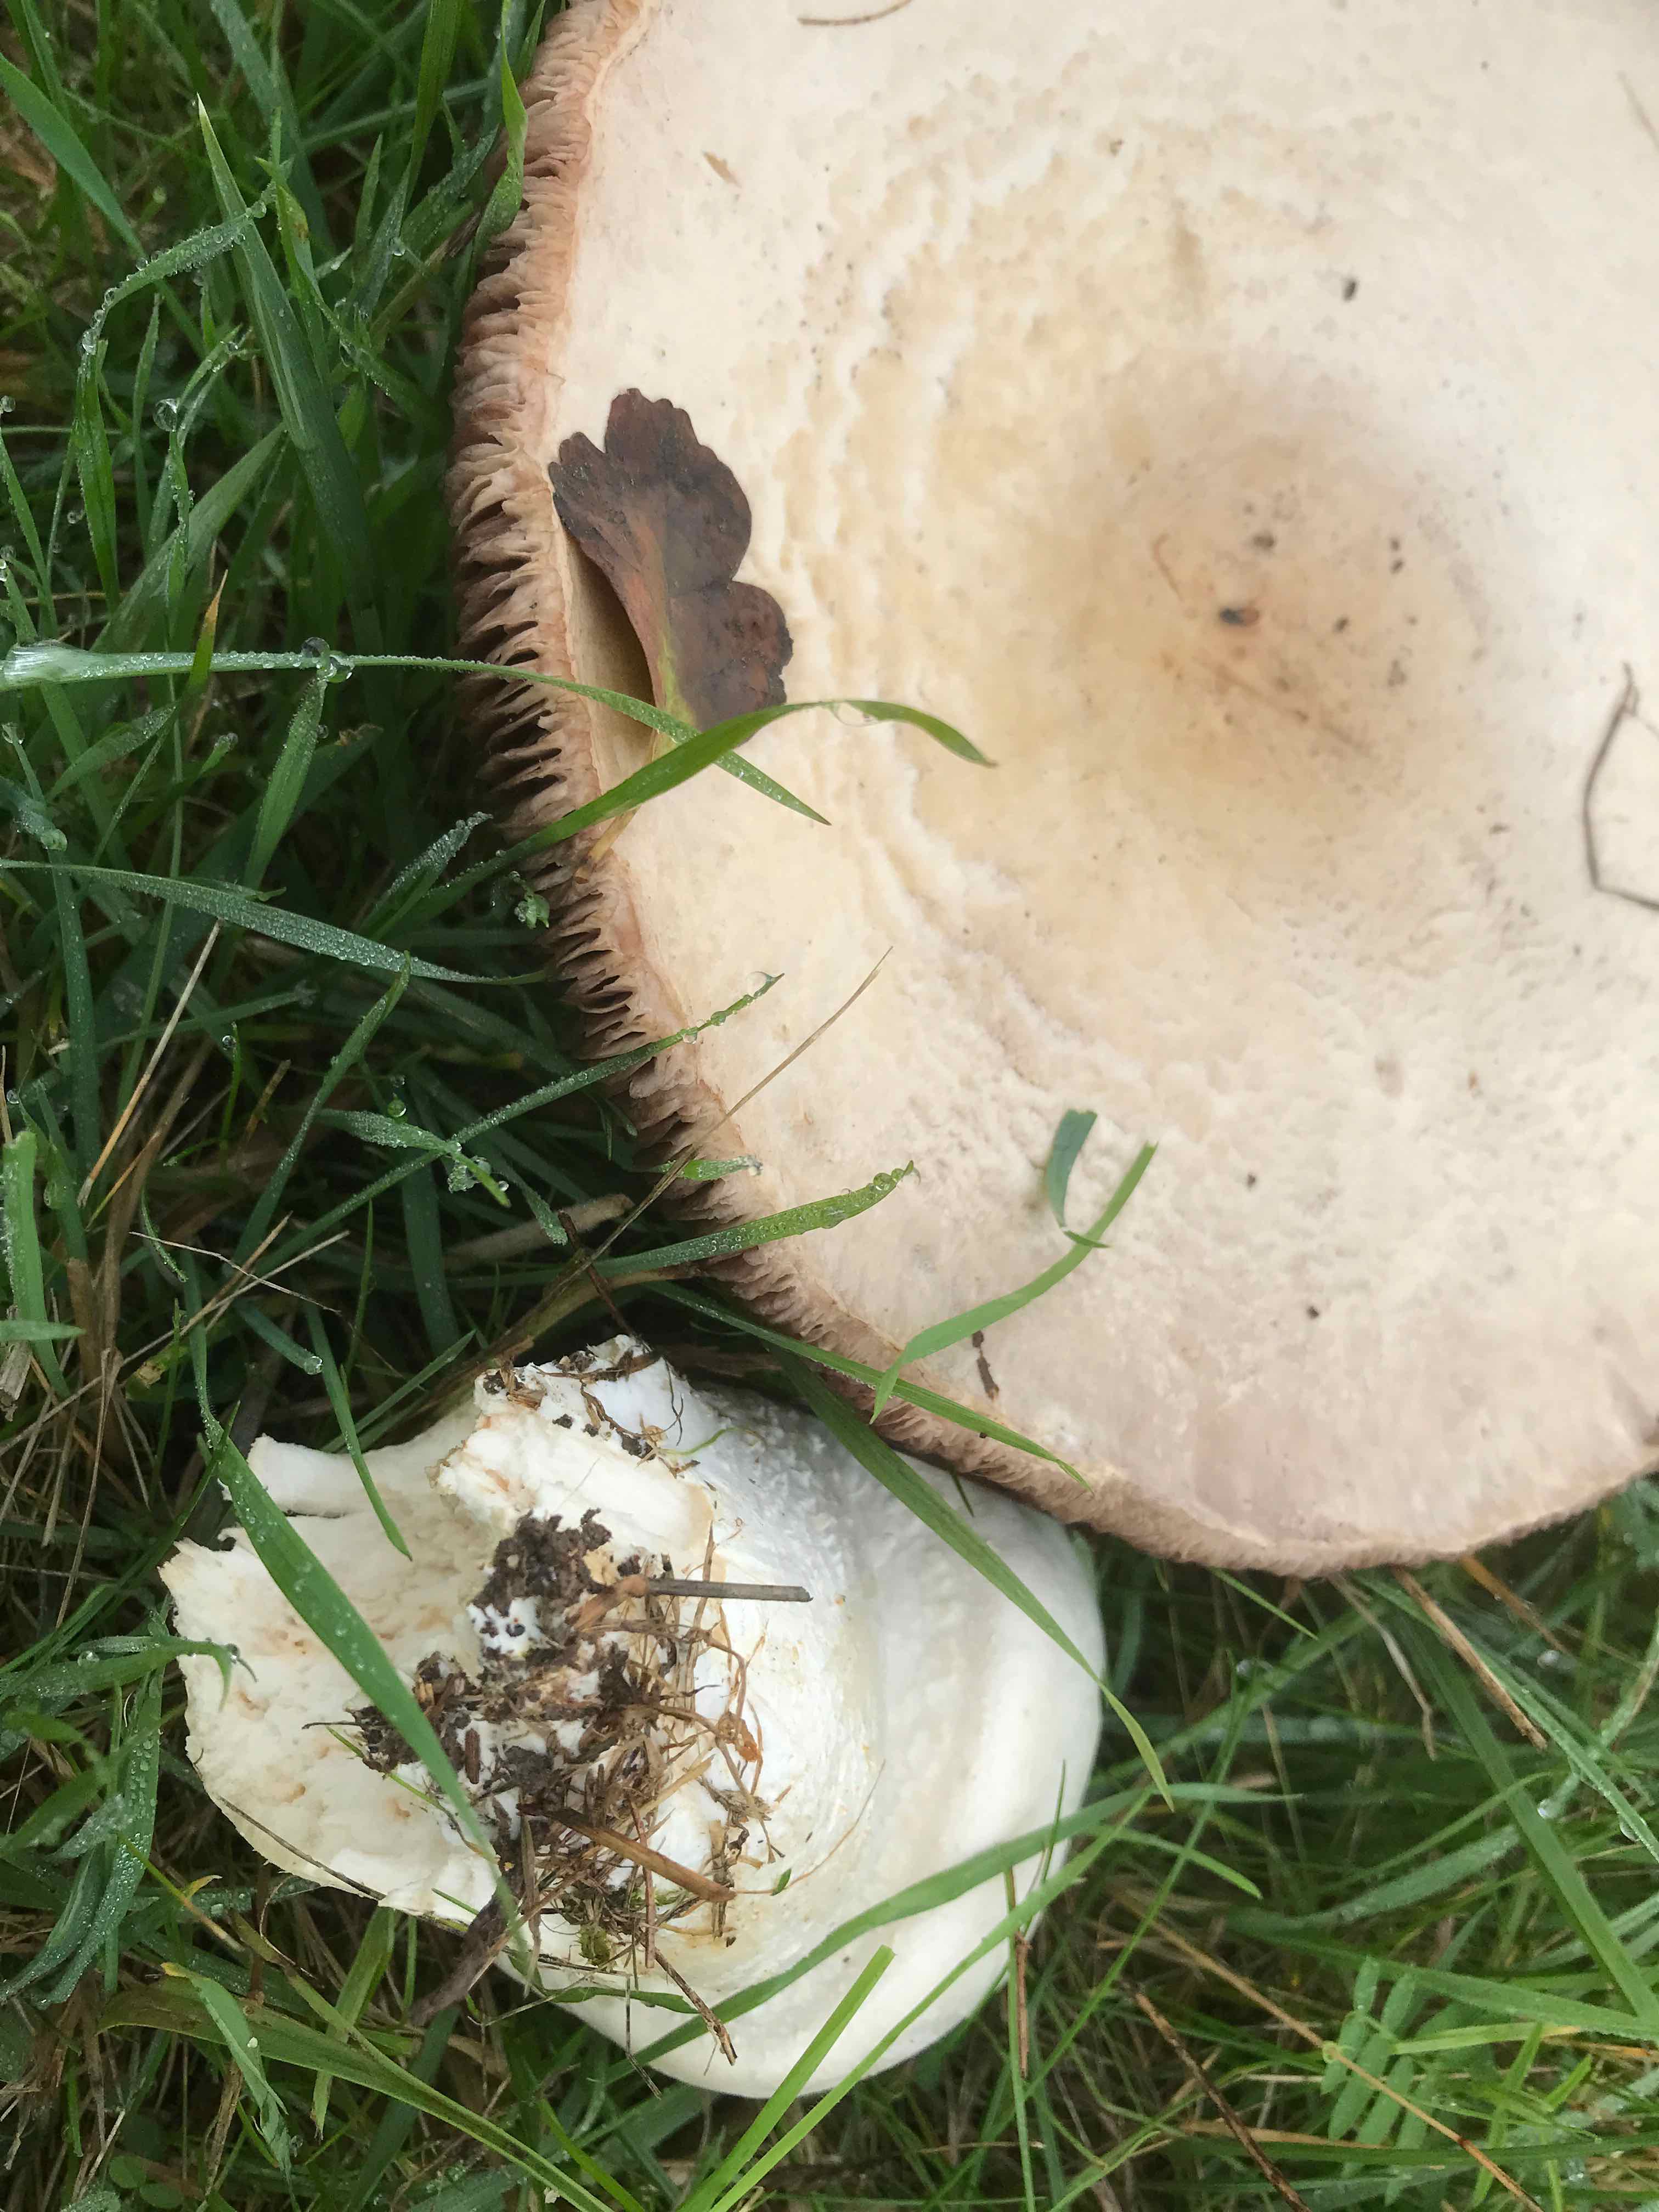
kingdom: Fungi
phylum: Basidiomycota
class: Agaricomycetes
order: Agaricales
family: Agaricaceae
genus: Agaricus
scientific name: Agaricus arvensis
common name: ager-champignon
